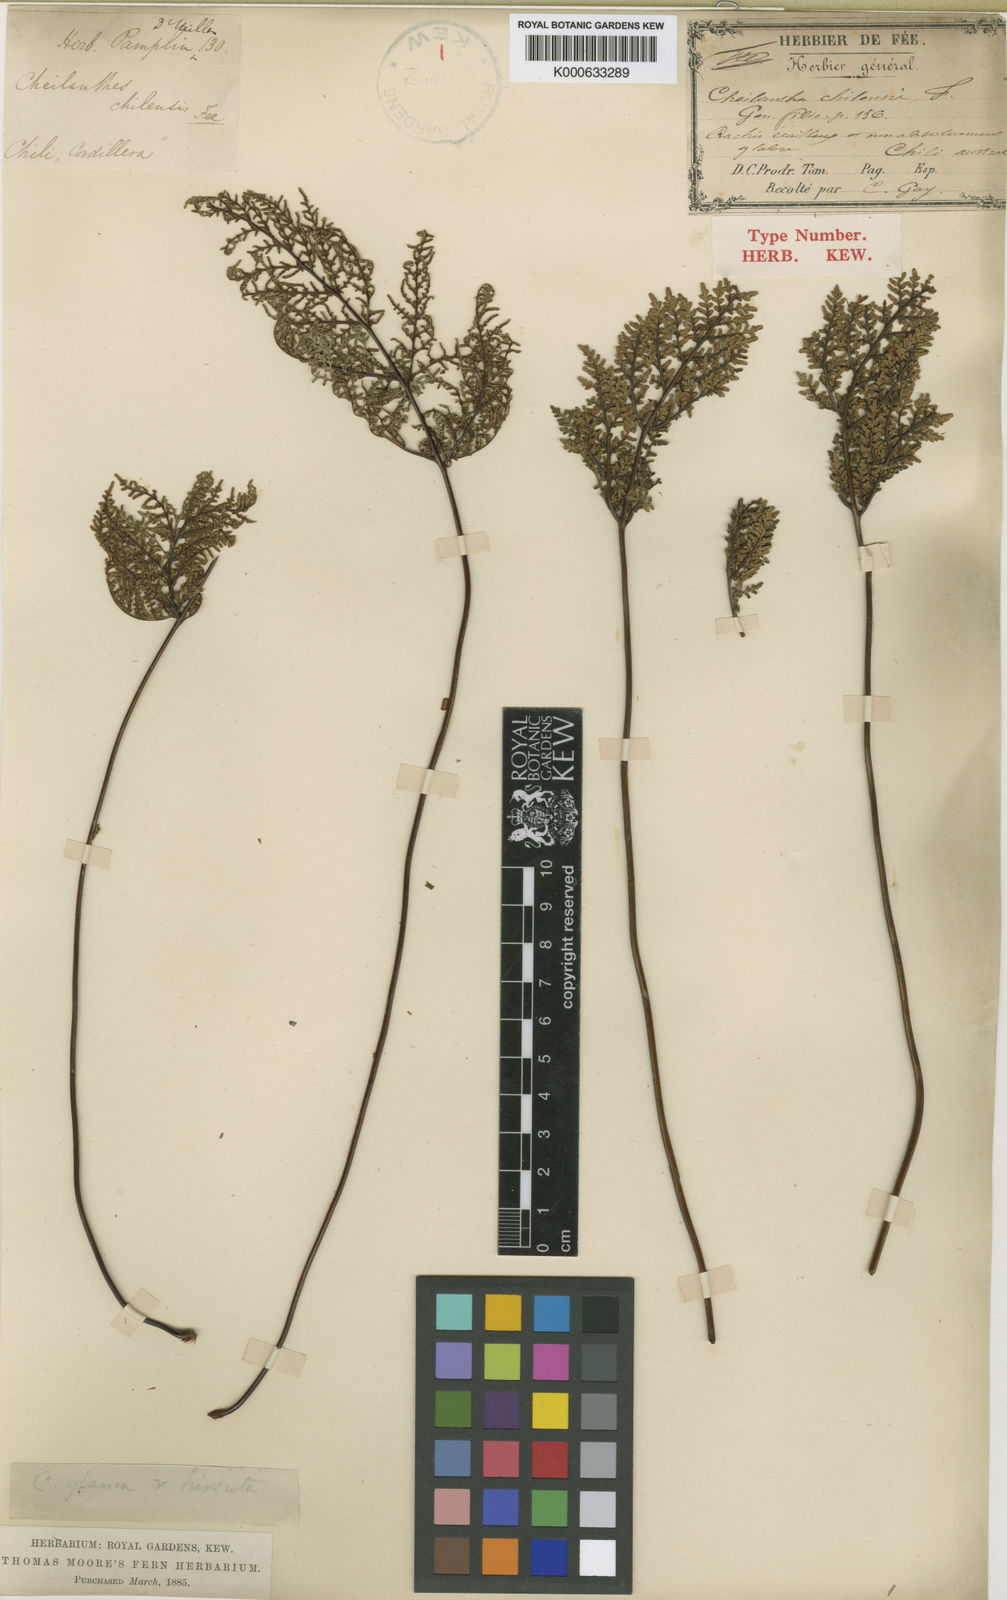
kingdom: Plantae
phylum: Tracheophyta
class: Polypodiopsida
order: Polypodiales
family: Pteridaceae
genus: Cheilanthes
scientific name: Cheilanthes
